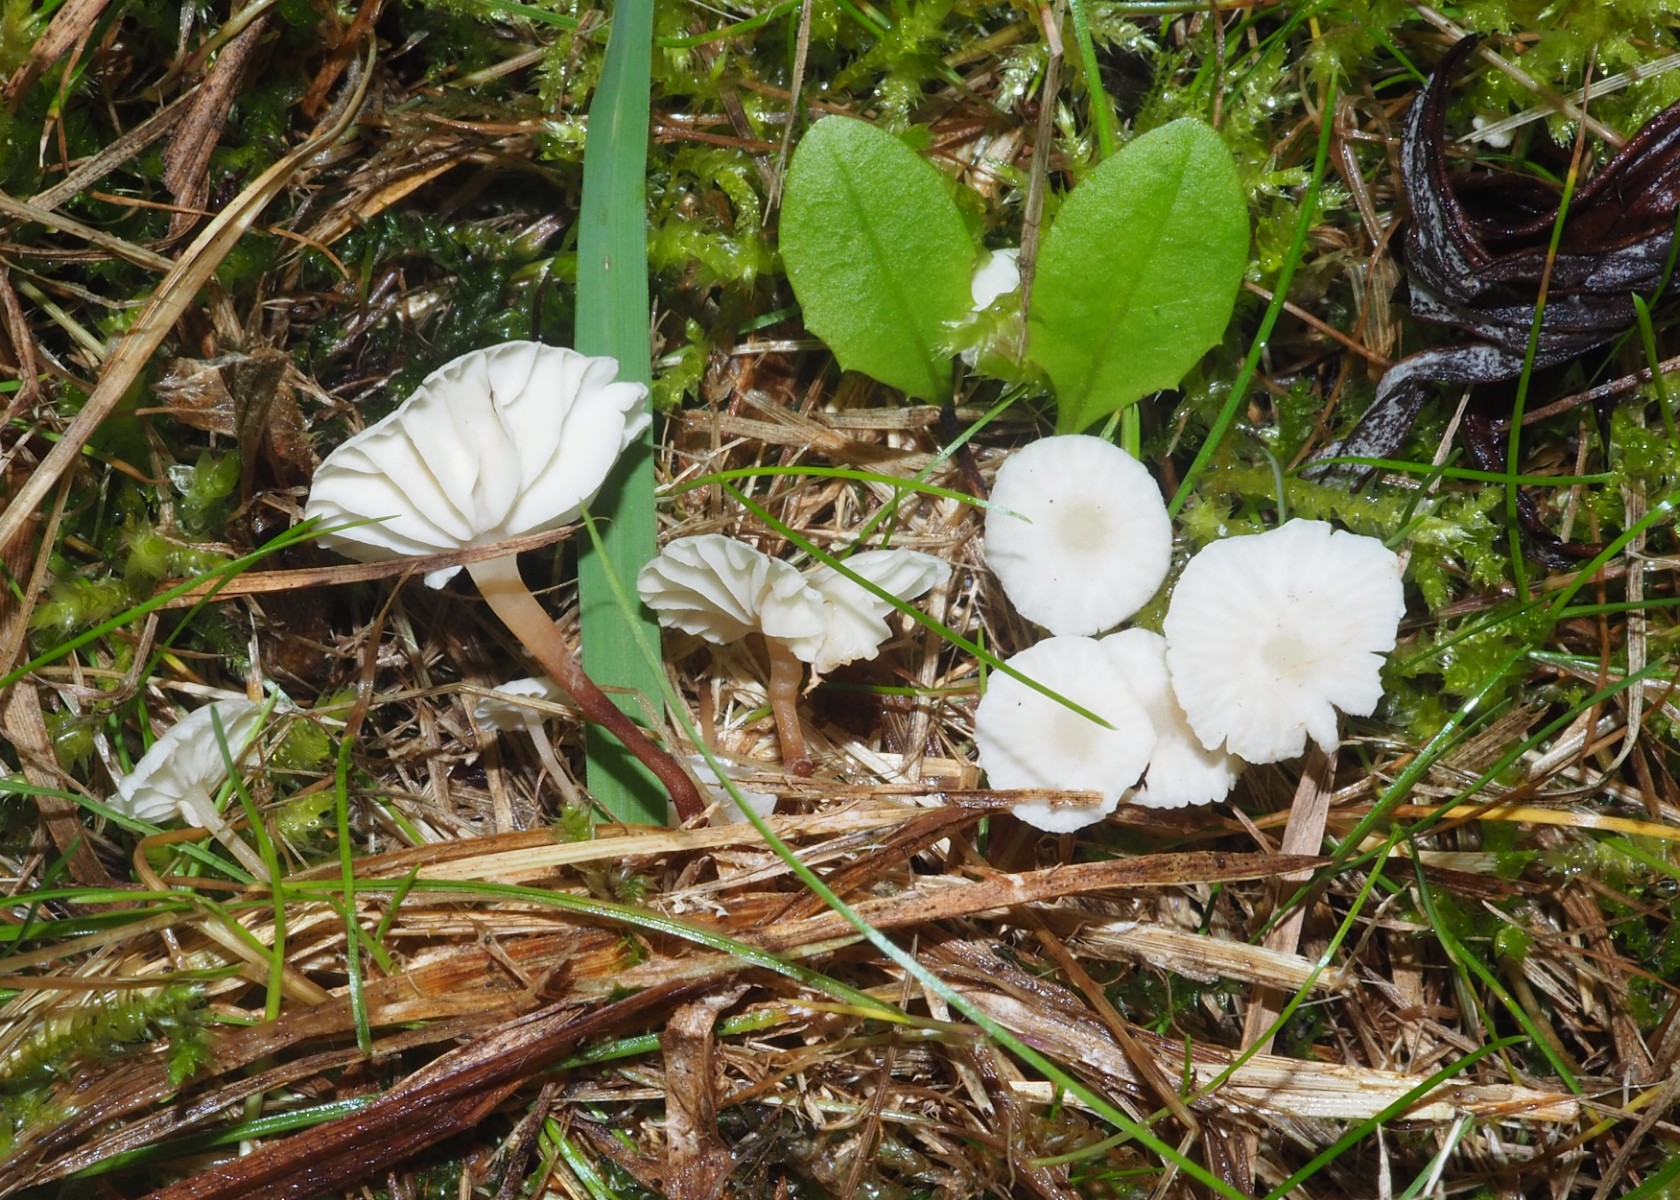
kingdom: Fungi
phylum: Basidiomycota
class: Agaricomycetes
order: Agaricales
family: Omphalotaceae
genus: Collybiopsis
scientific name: Collybiopsis vaillantii
